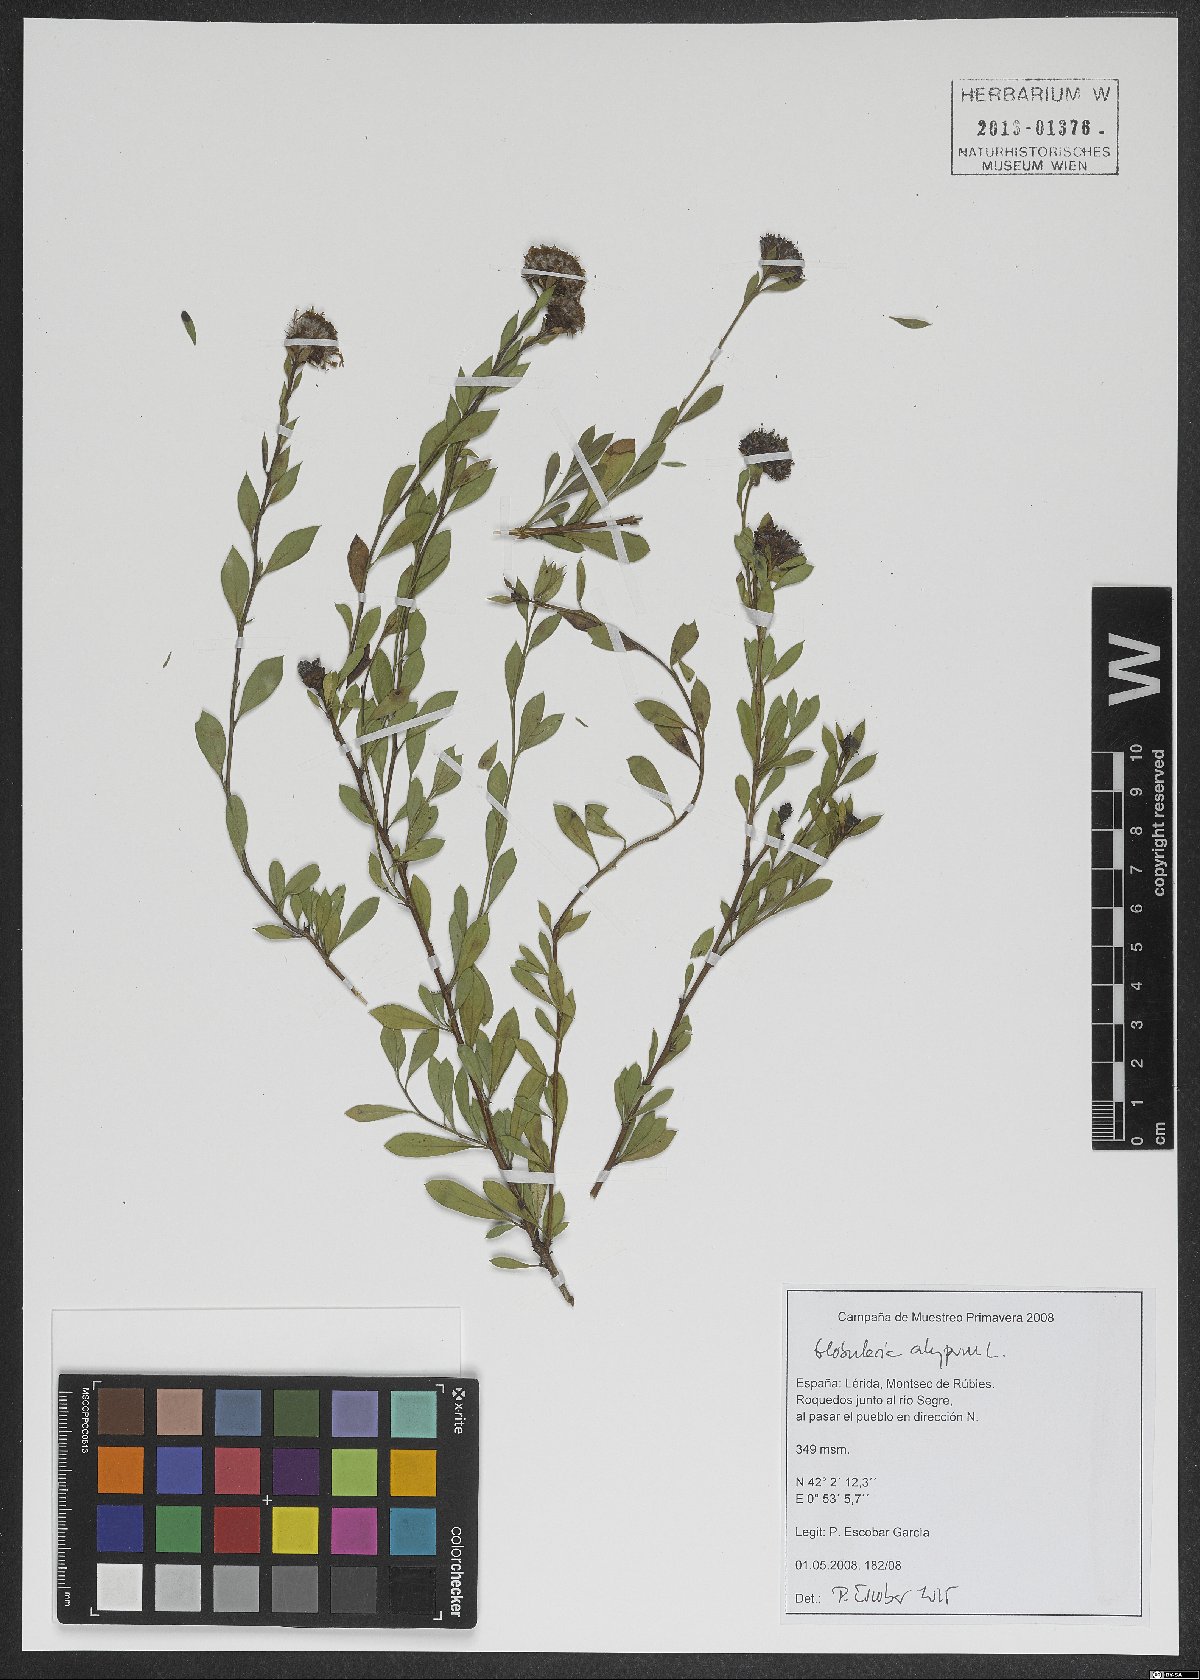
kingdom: Plantae
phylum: Tracheophyta
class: Magnoliopsida
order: Lamiales
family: Plantaginaceae
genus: Globularia
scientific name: Globularia alypum
